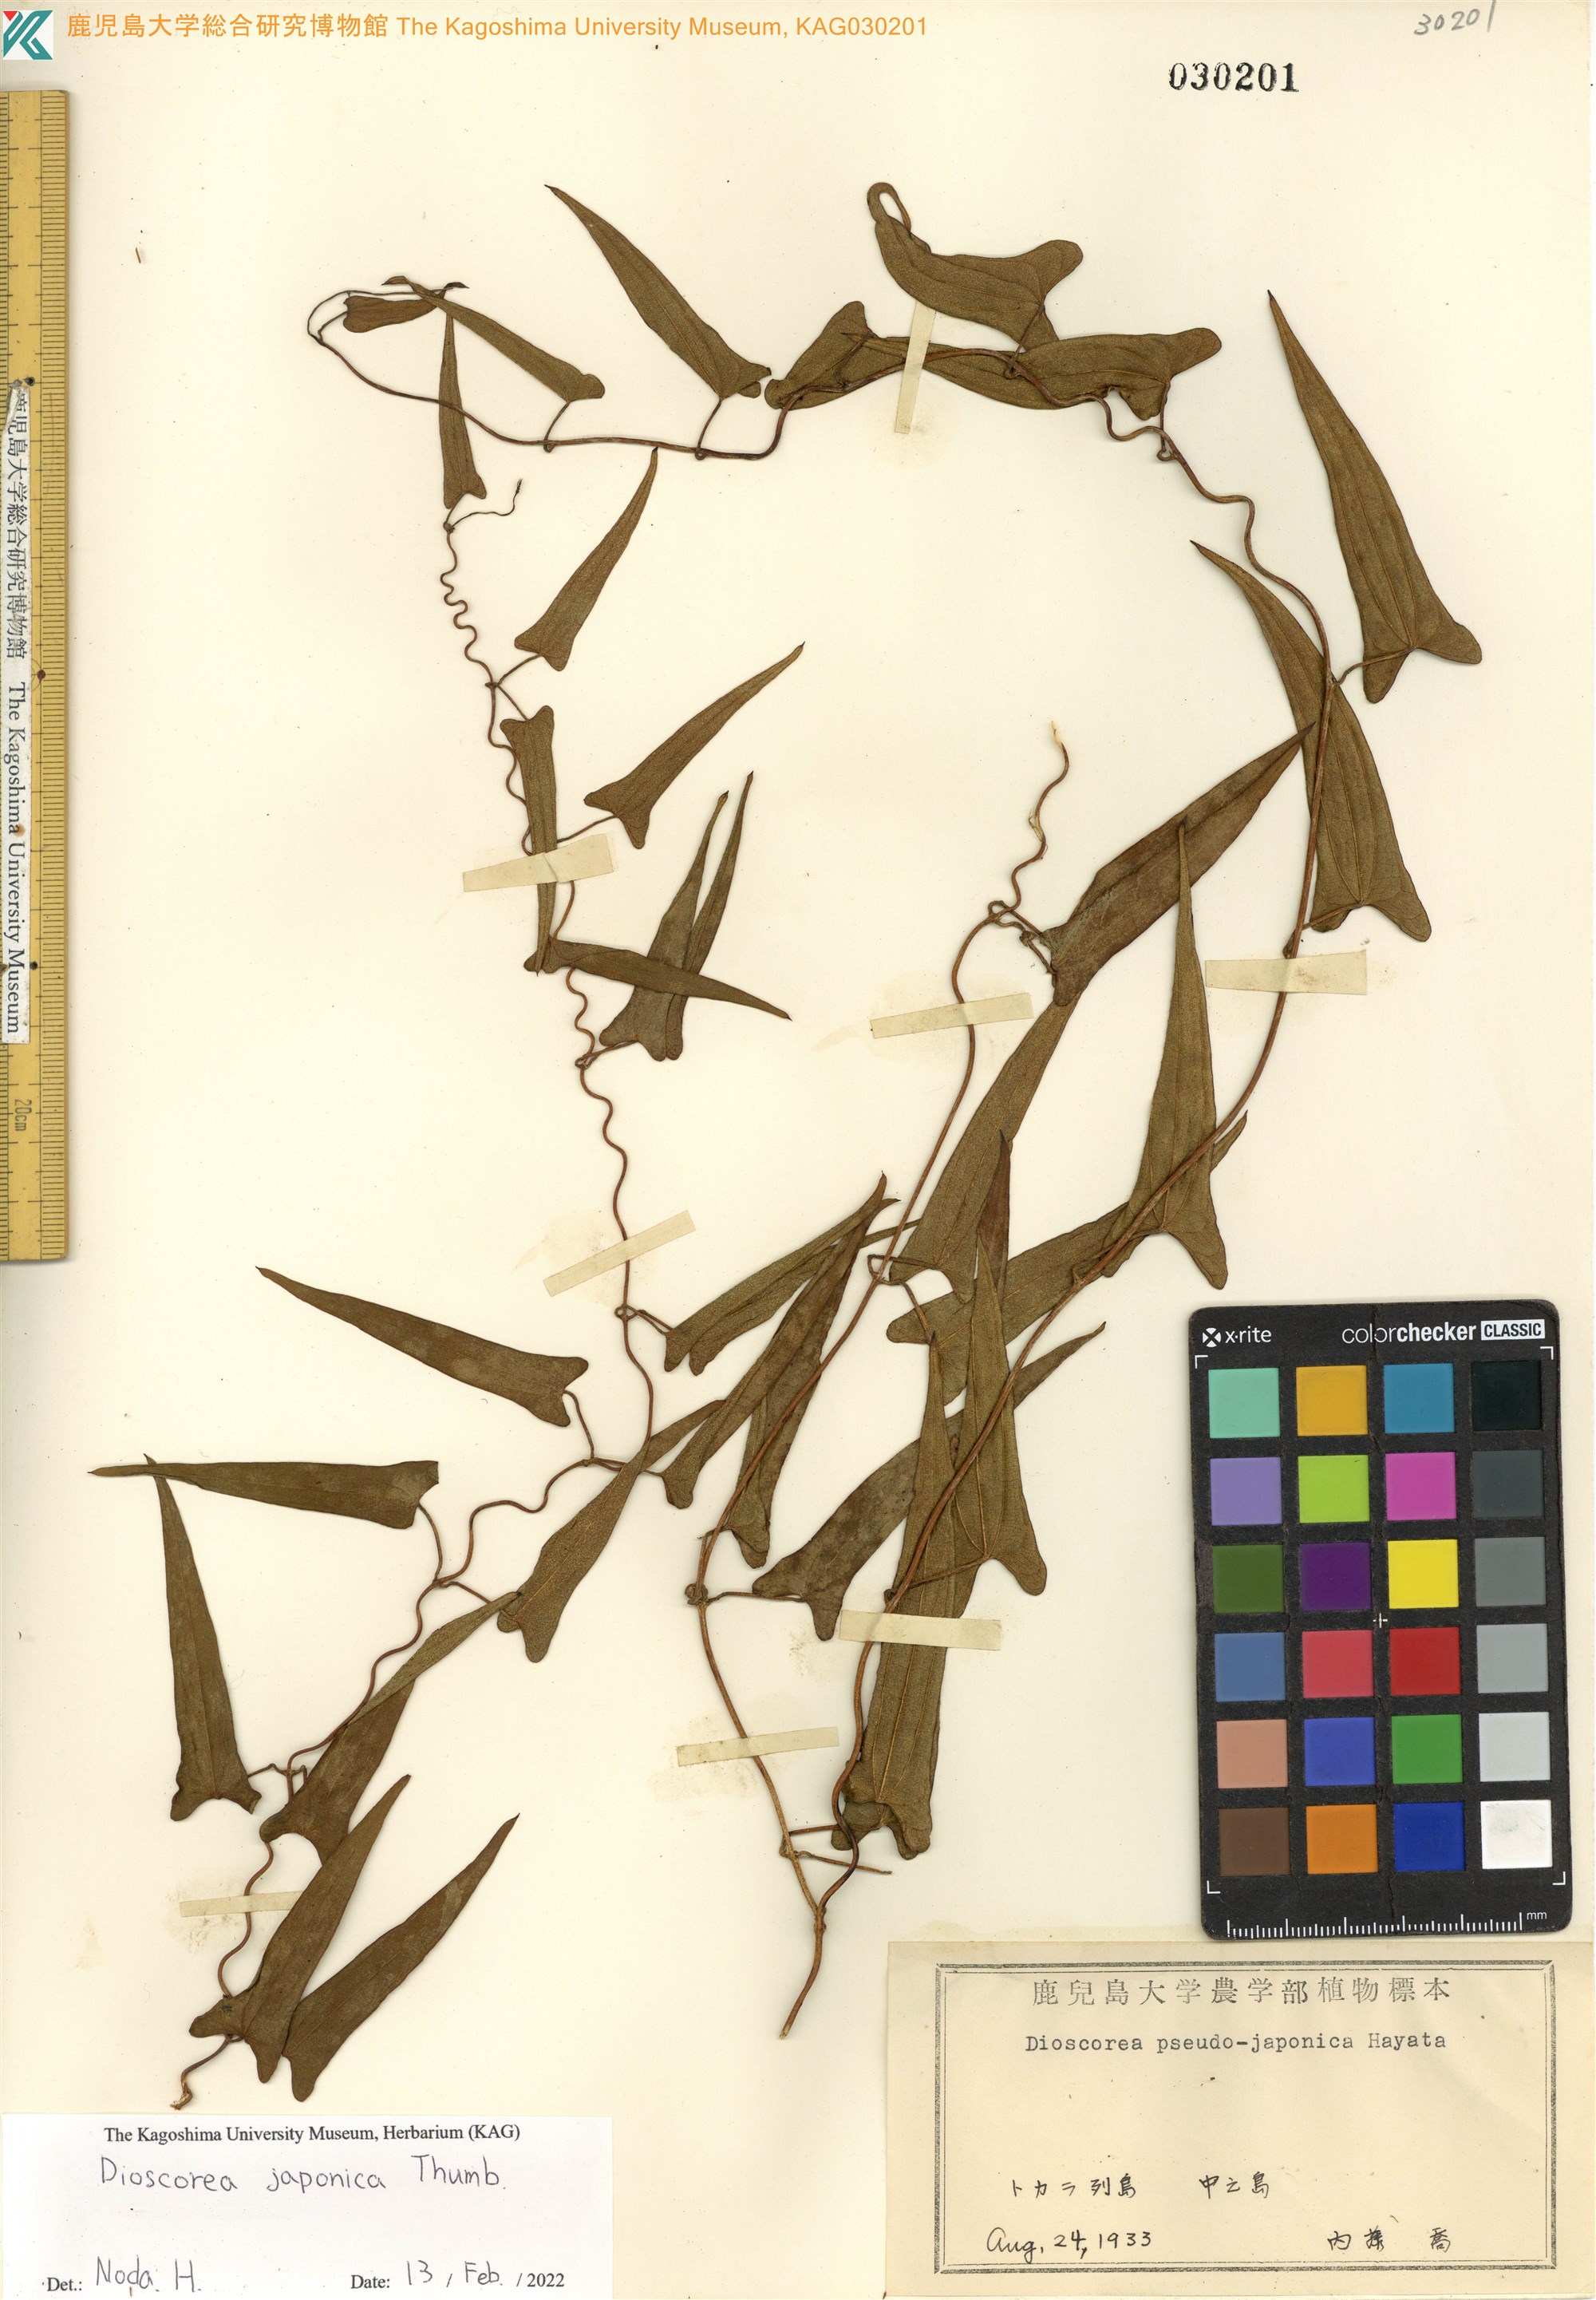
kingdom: Plantae
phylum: Tracheophyta
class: Liliopsida
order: Dioscoreales
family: Dioscoreaceae
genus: Dioscorea
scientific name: Dioscorea japonica
